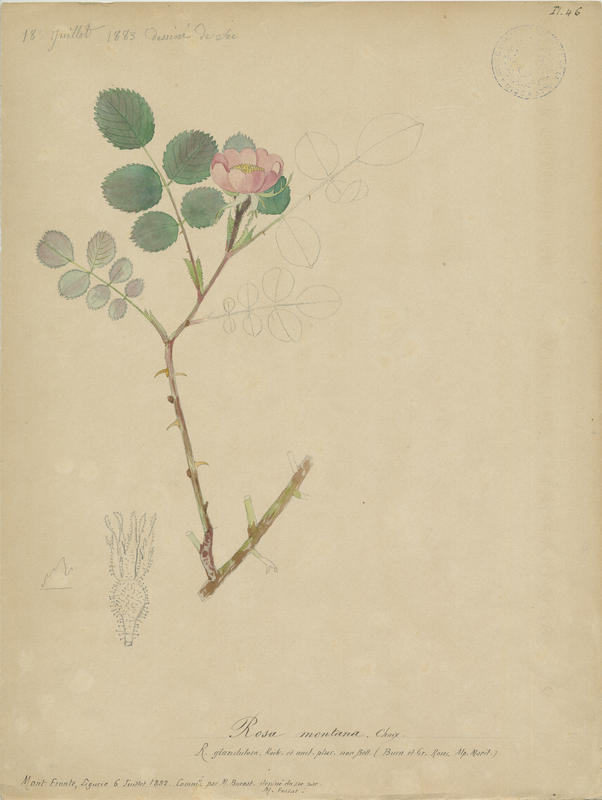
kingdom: Plantae
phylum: Tracheophyta
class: Magnoliopsida
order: Rosales
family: Rosaceae
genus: Rosa
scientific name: Rosa pendulina
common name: Alpine rose
